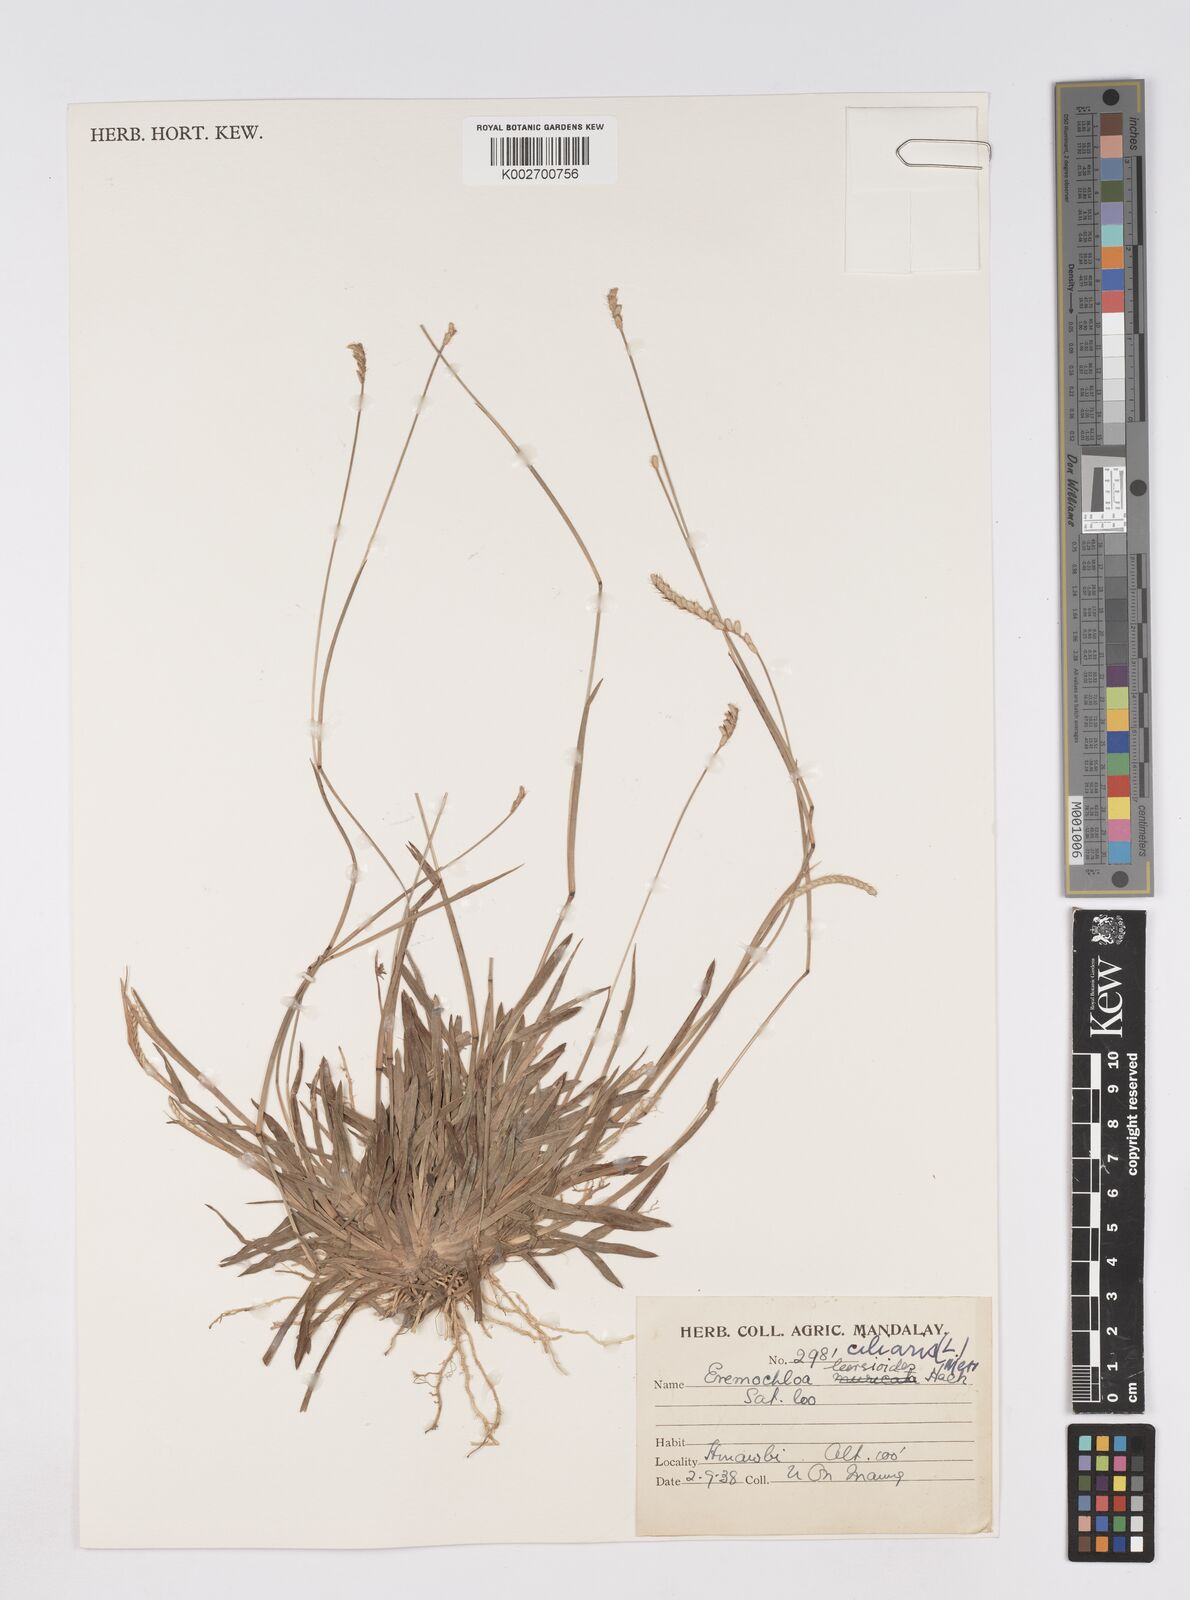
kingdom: Plantae
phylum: Tracheophyta
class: Liliopsida
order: Poales
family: Poaceae
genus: Eremochloa
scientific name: Eremochloa ciliaris
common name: Fringed centipede grass
